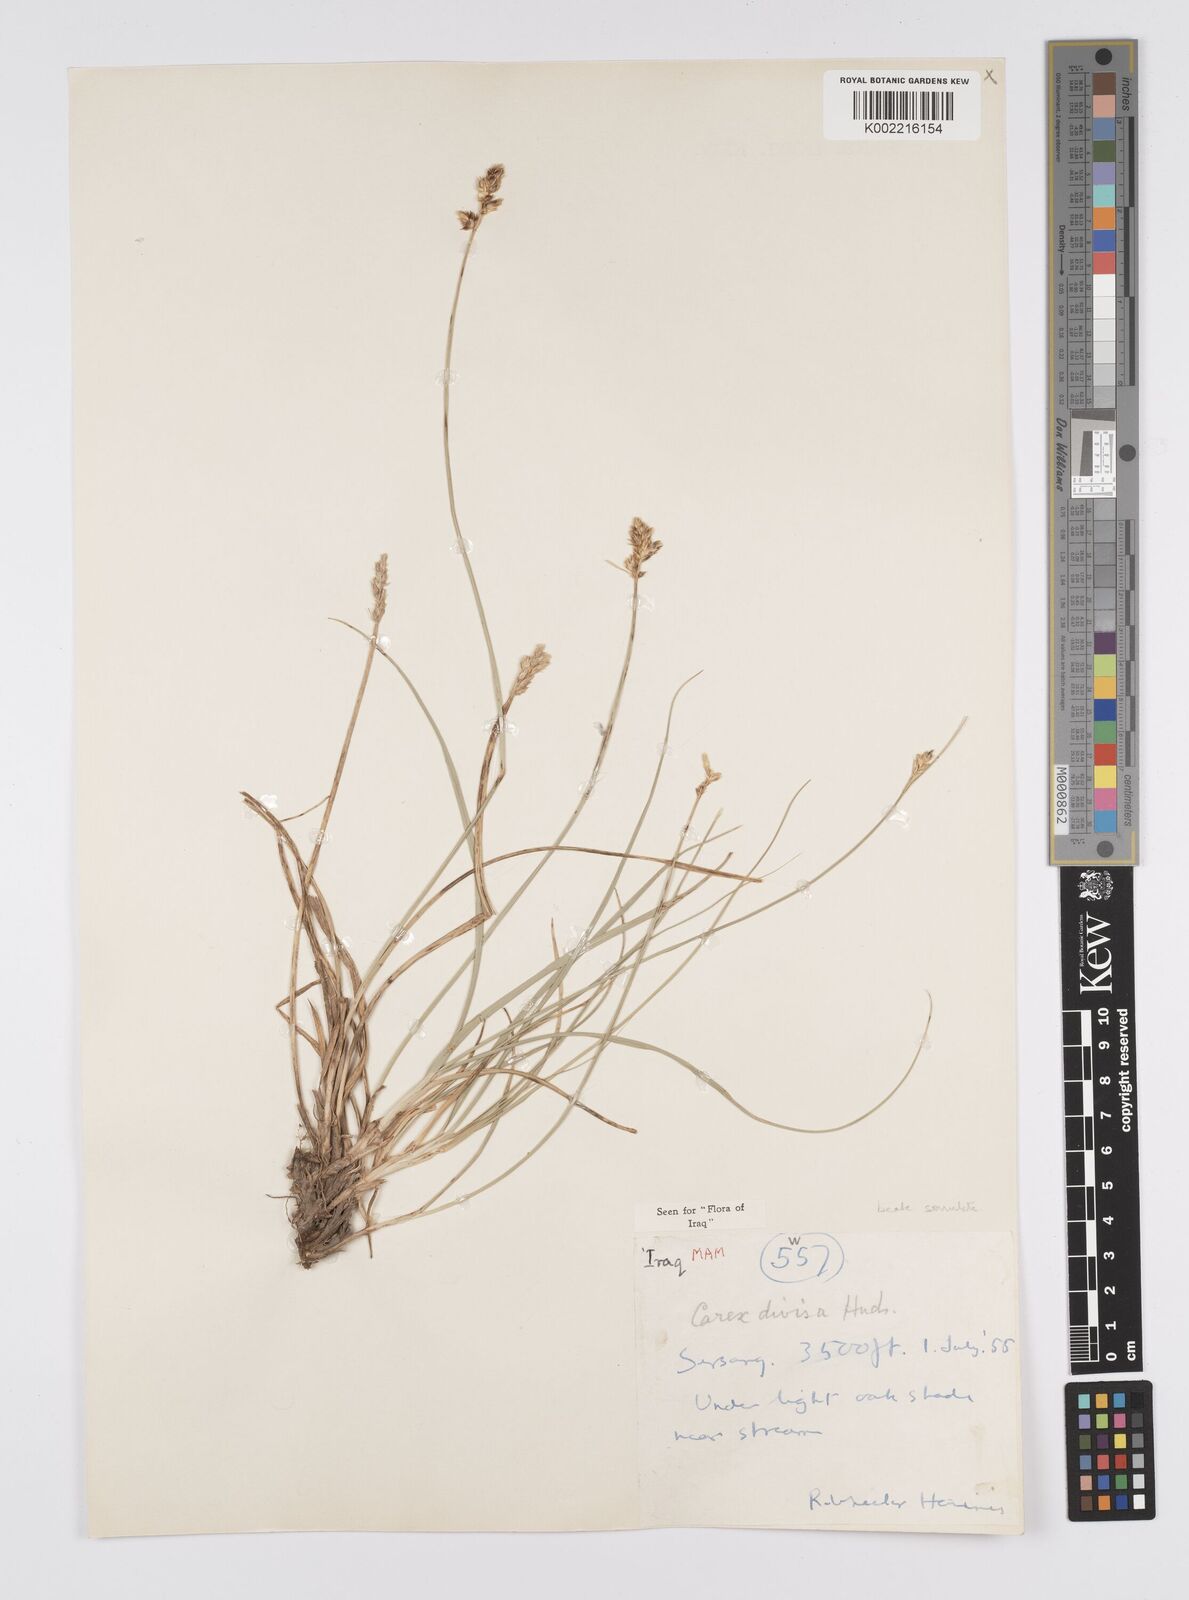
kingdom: Plantae
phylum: Tracheophyta
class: Liliopsida
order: Poales
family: Cyperaceae
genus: Carex
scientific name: Carex divisa
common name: Divided sedge
